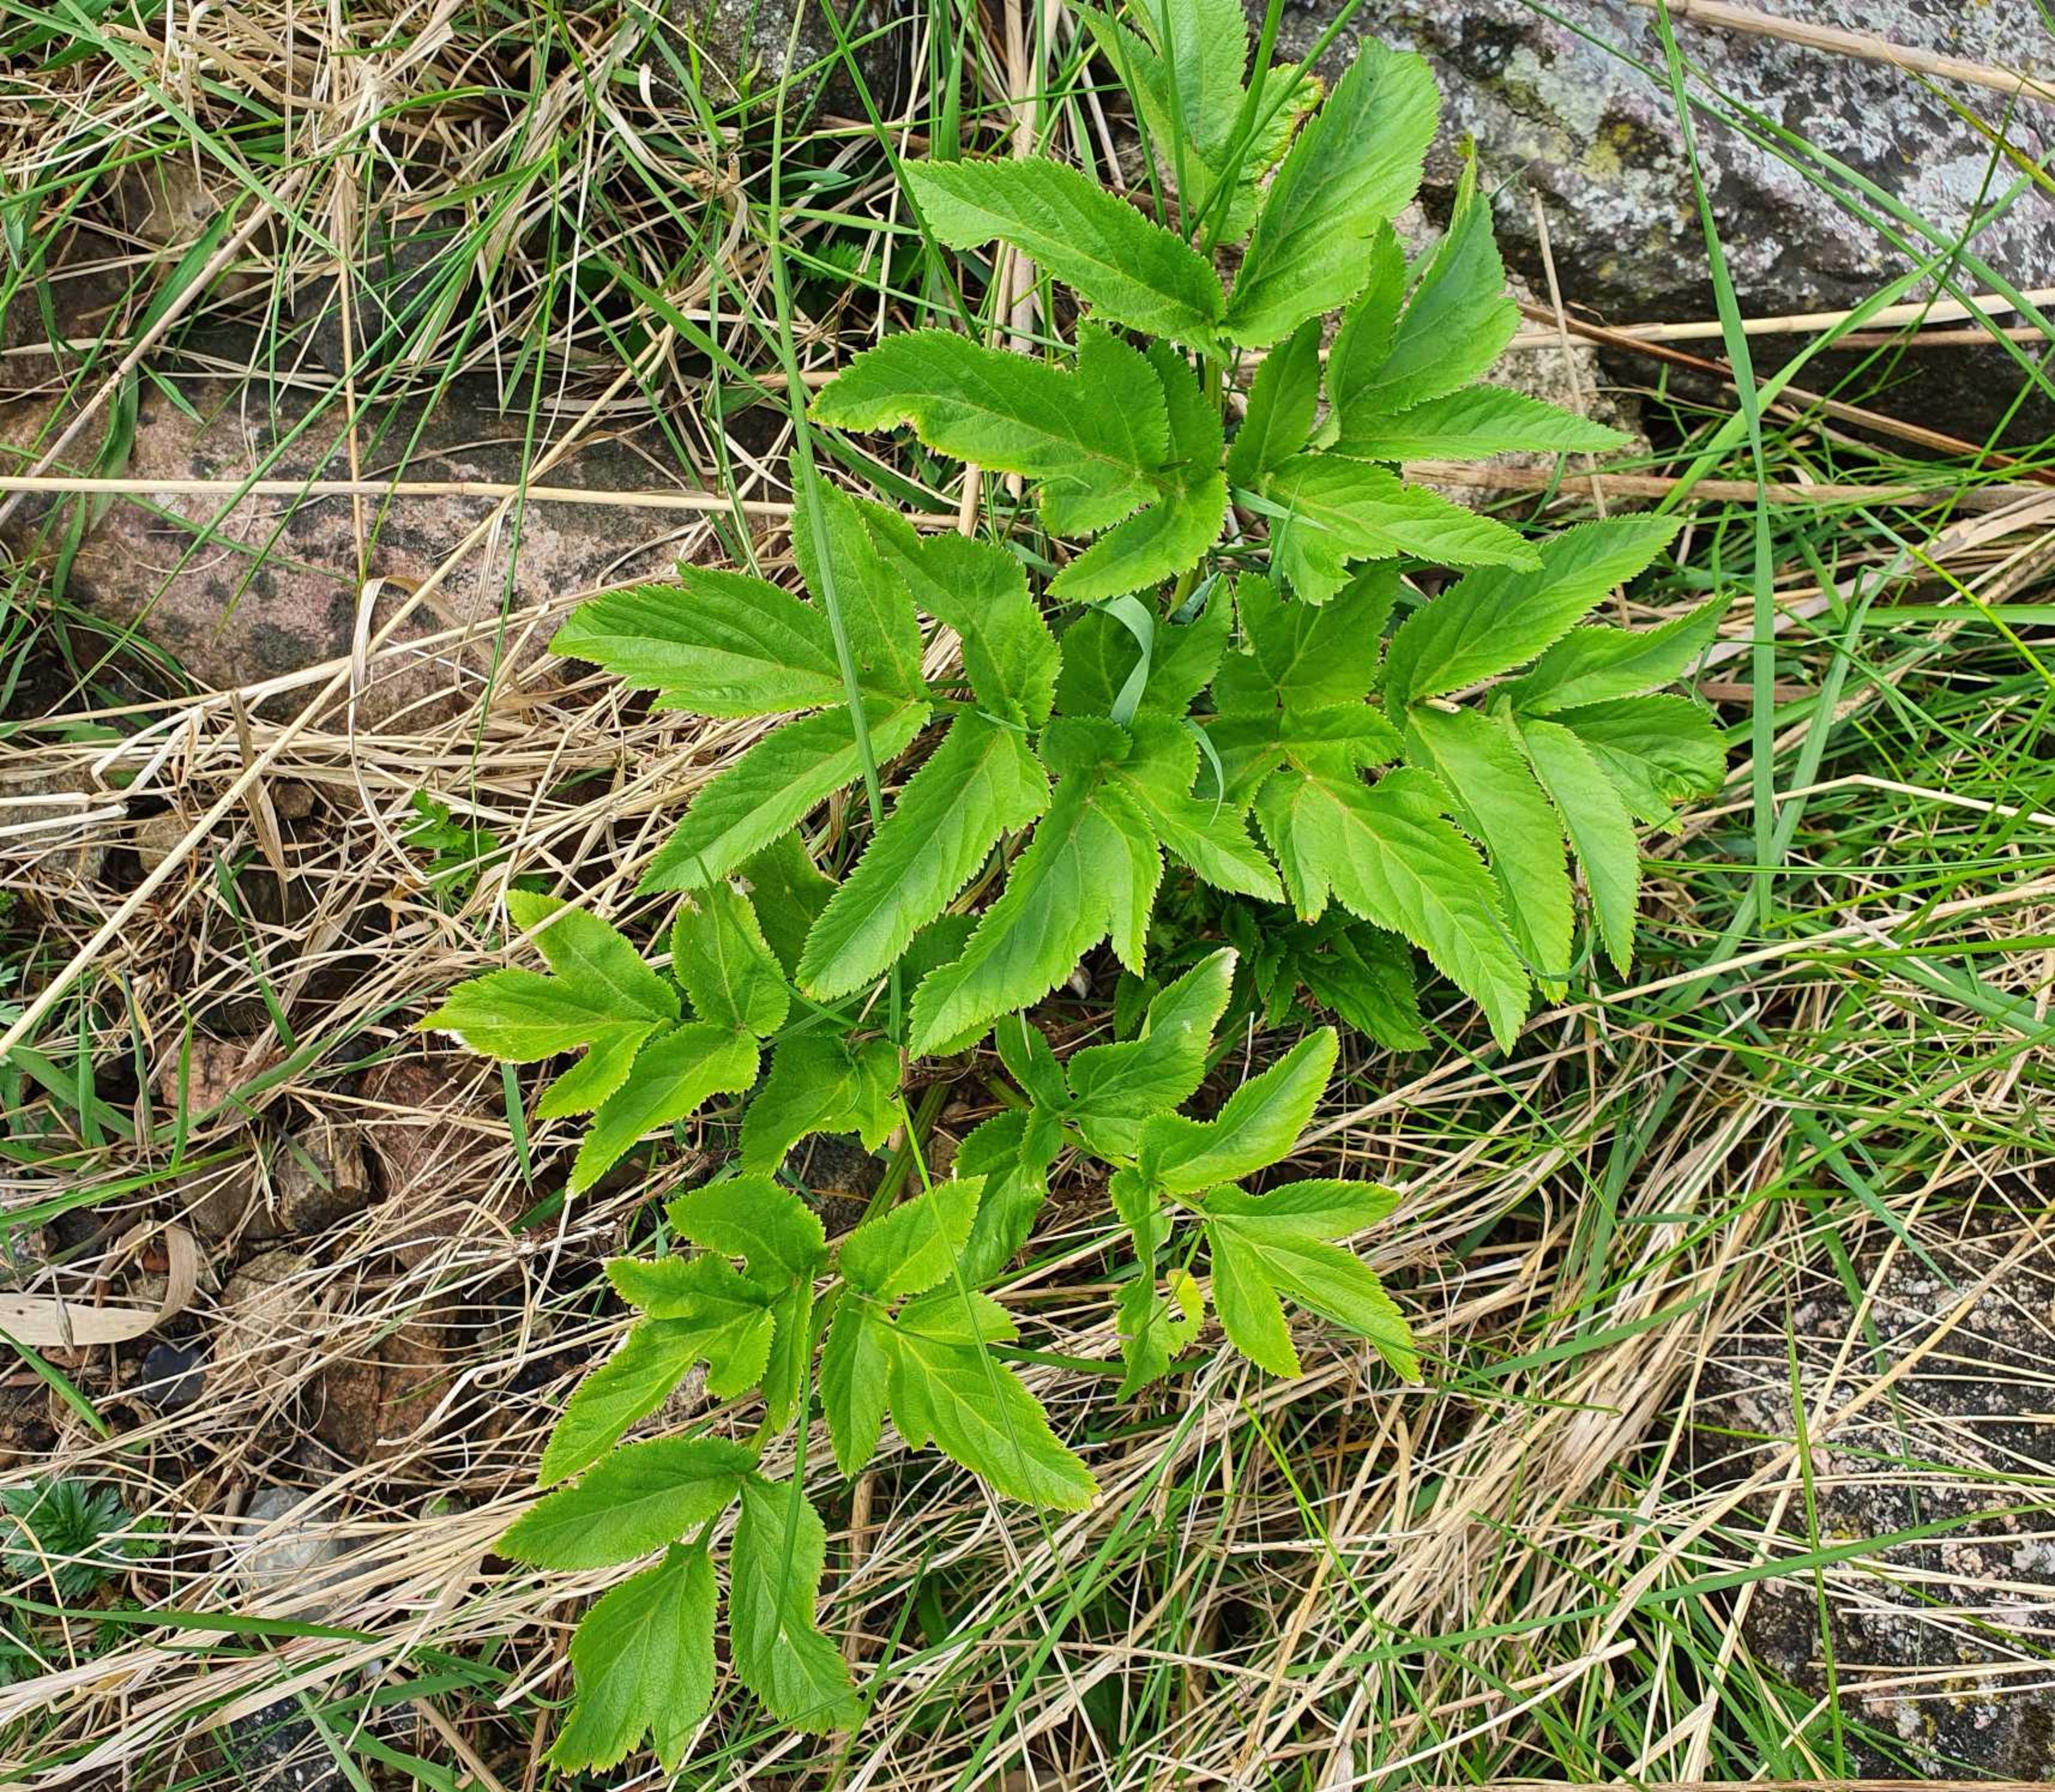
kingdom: Plantae
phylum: Tracheophyta
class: Magnoliopsida
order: Apiales
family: Apiaceae
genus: Angelica
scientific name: Angelica archangelica
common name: Strand-kvan
